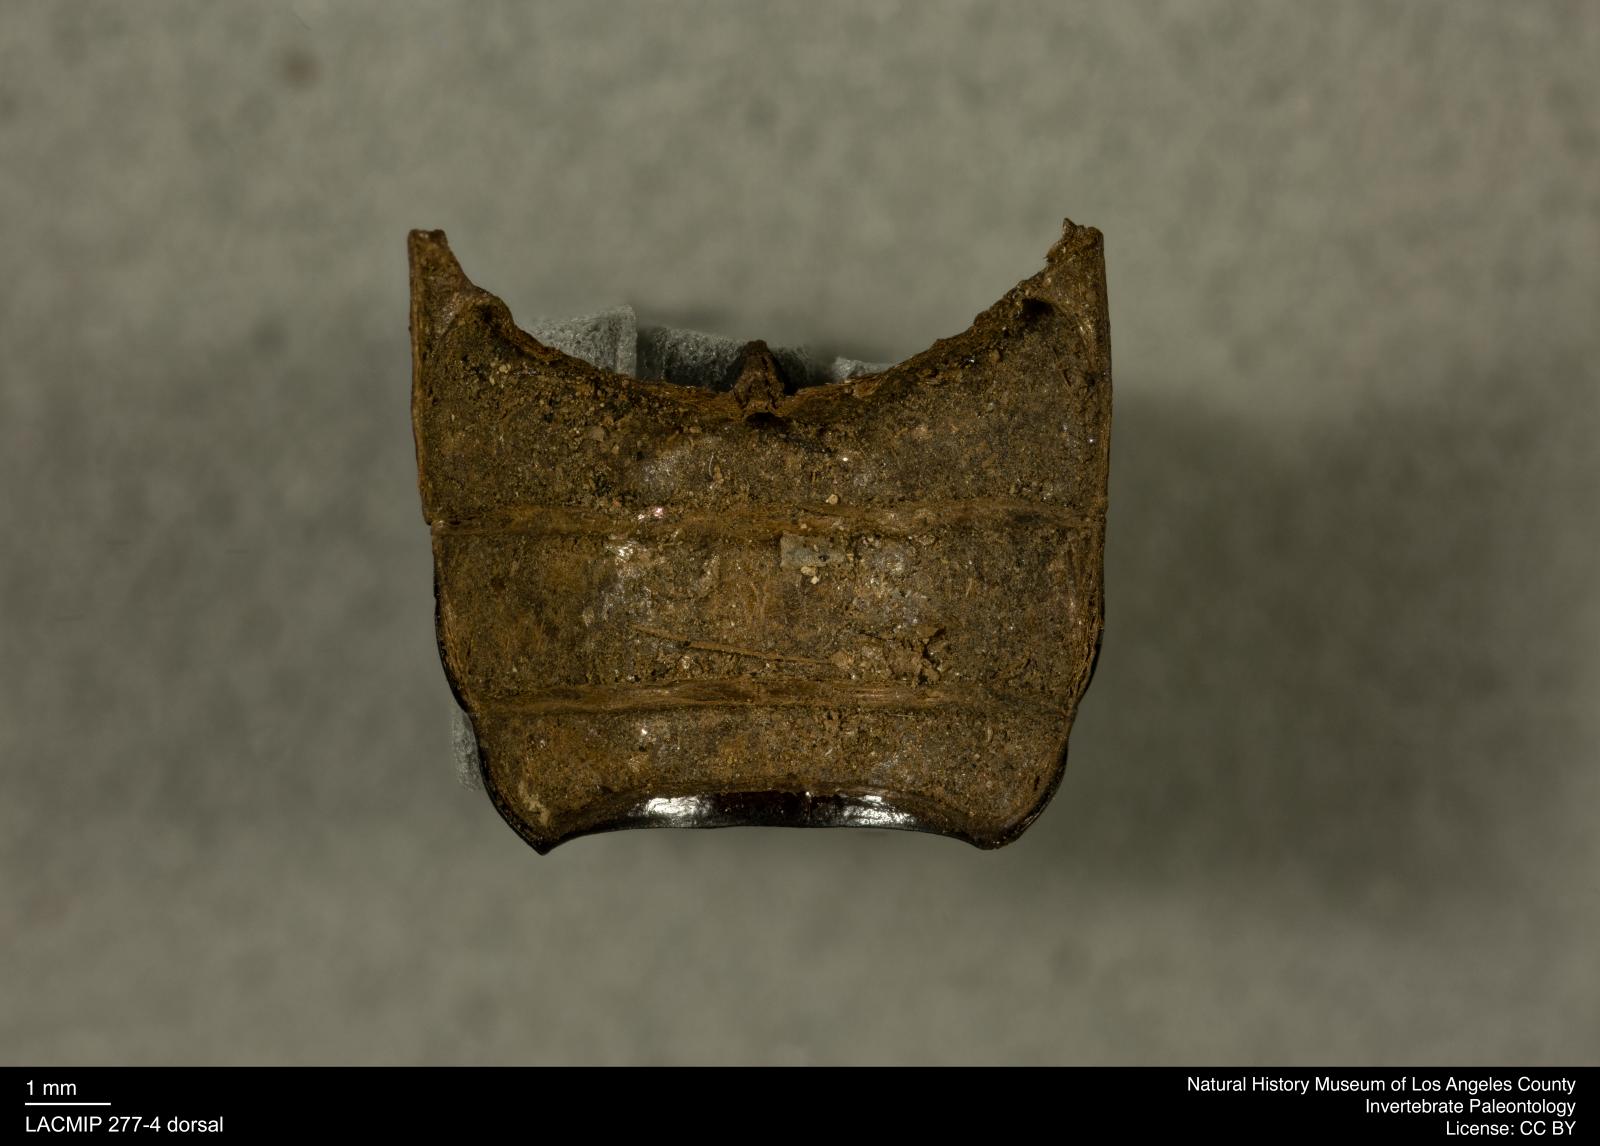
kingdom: Animalia
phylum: Arthropoda
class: Insecta
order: Coleoptera
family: Tenebrionidae
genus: Coniontis
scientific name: Coniontis abdominalis
